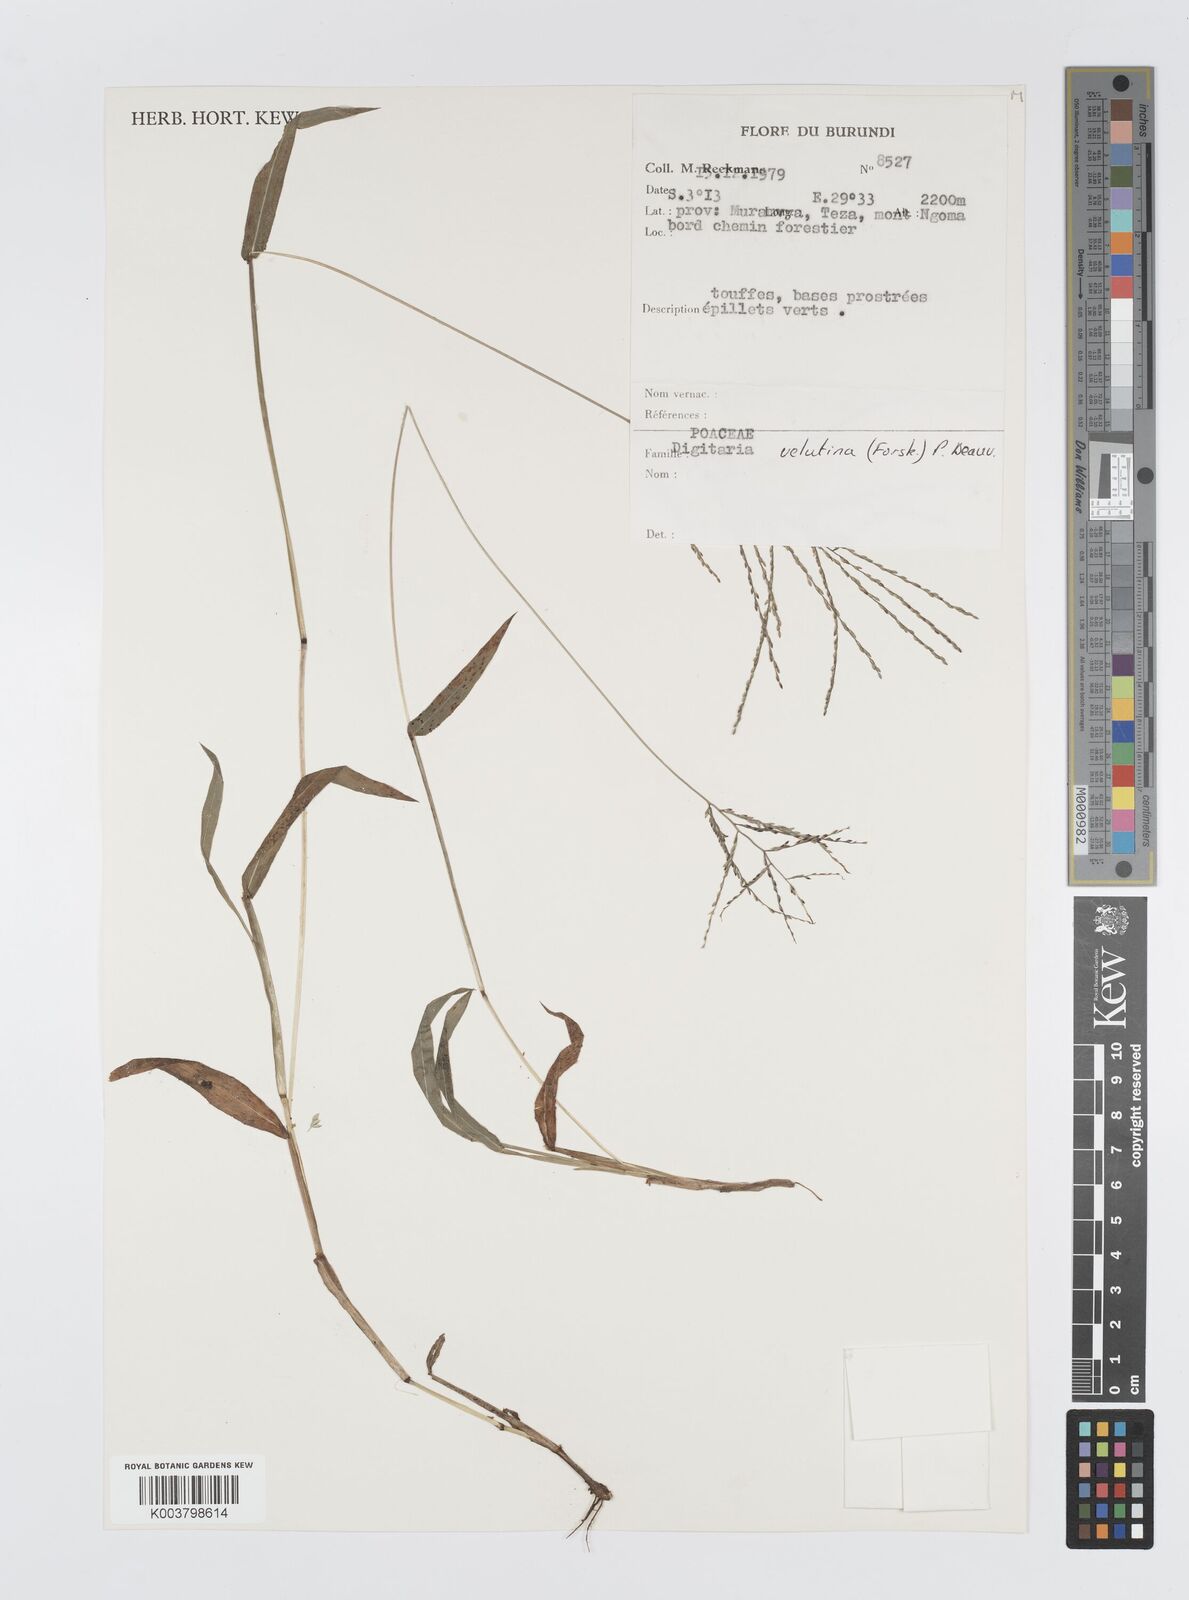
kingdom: Plantae
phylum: Tracheophyta
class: Liliopsida
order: Poales
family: Poaceae
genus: Digitaria
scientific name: Digitaria velutina
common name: Long-plume finger grass
